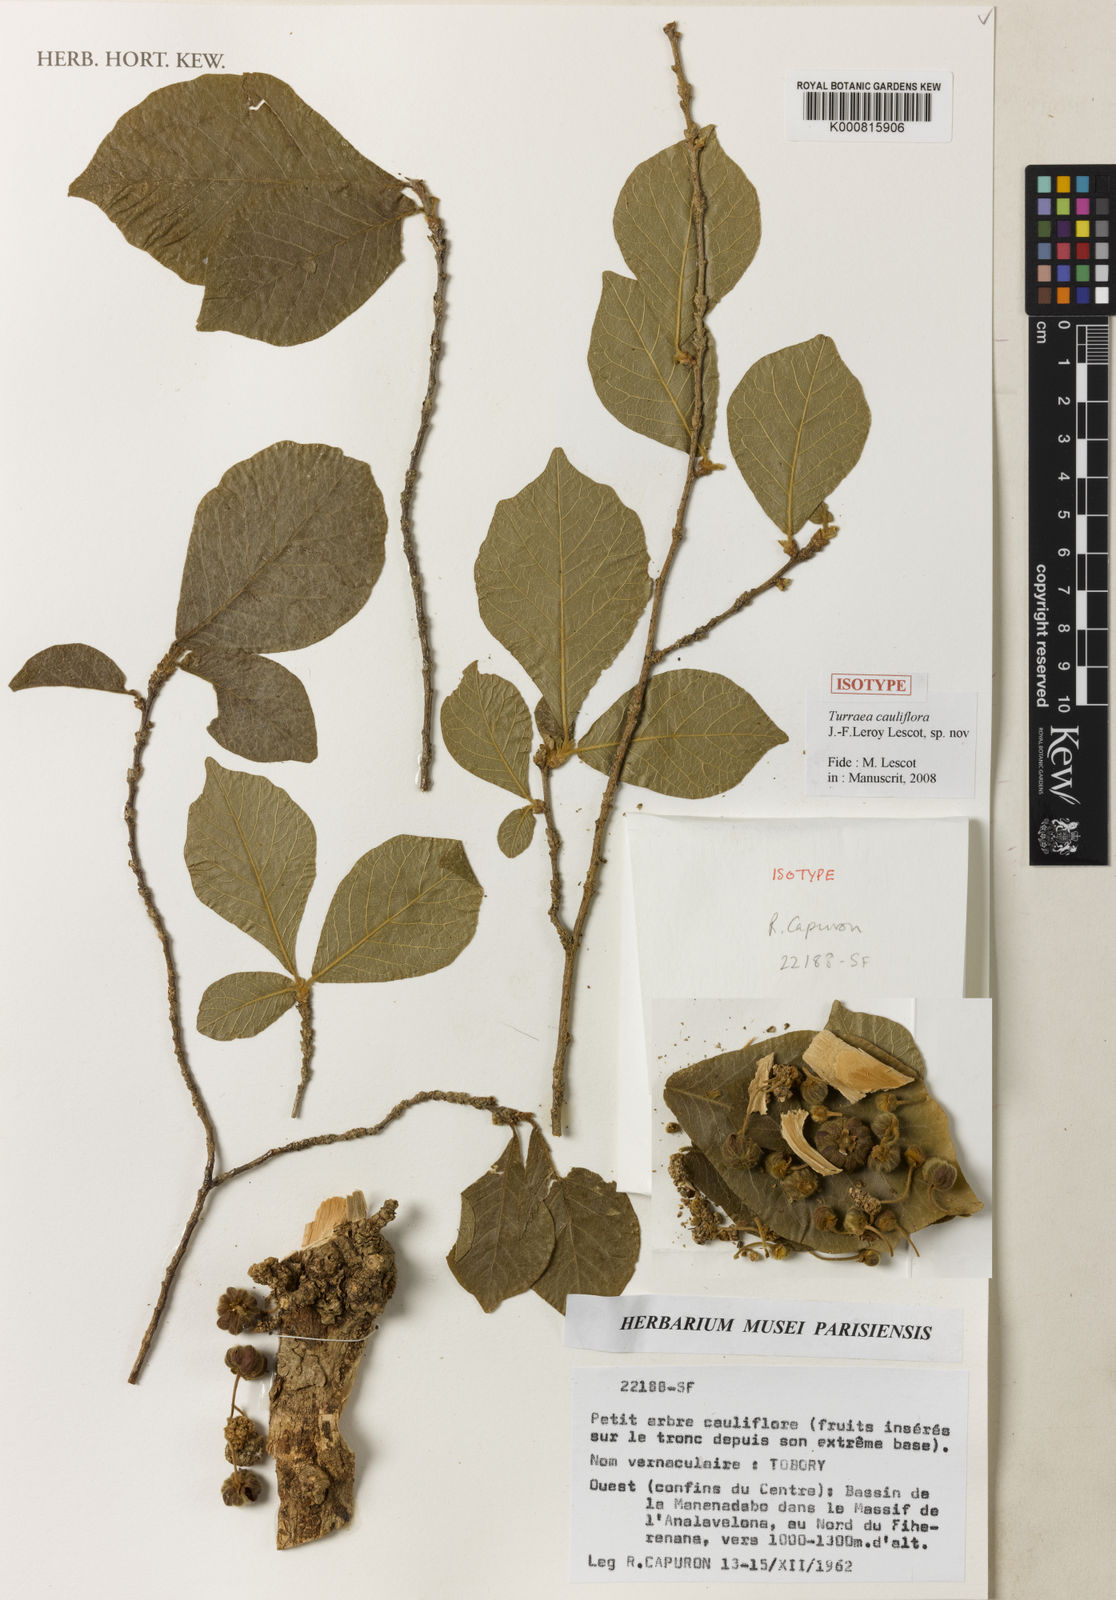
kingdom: Plantae
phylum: Tracheophyta
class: Magnoliopsida
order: Sapindales
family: Meliaceae
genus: Turraea
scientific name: Turraea
